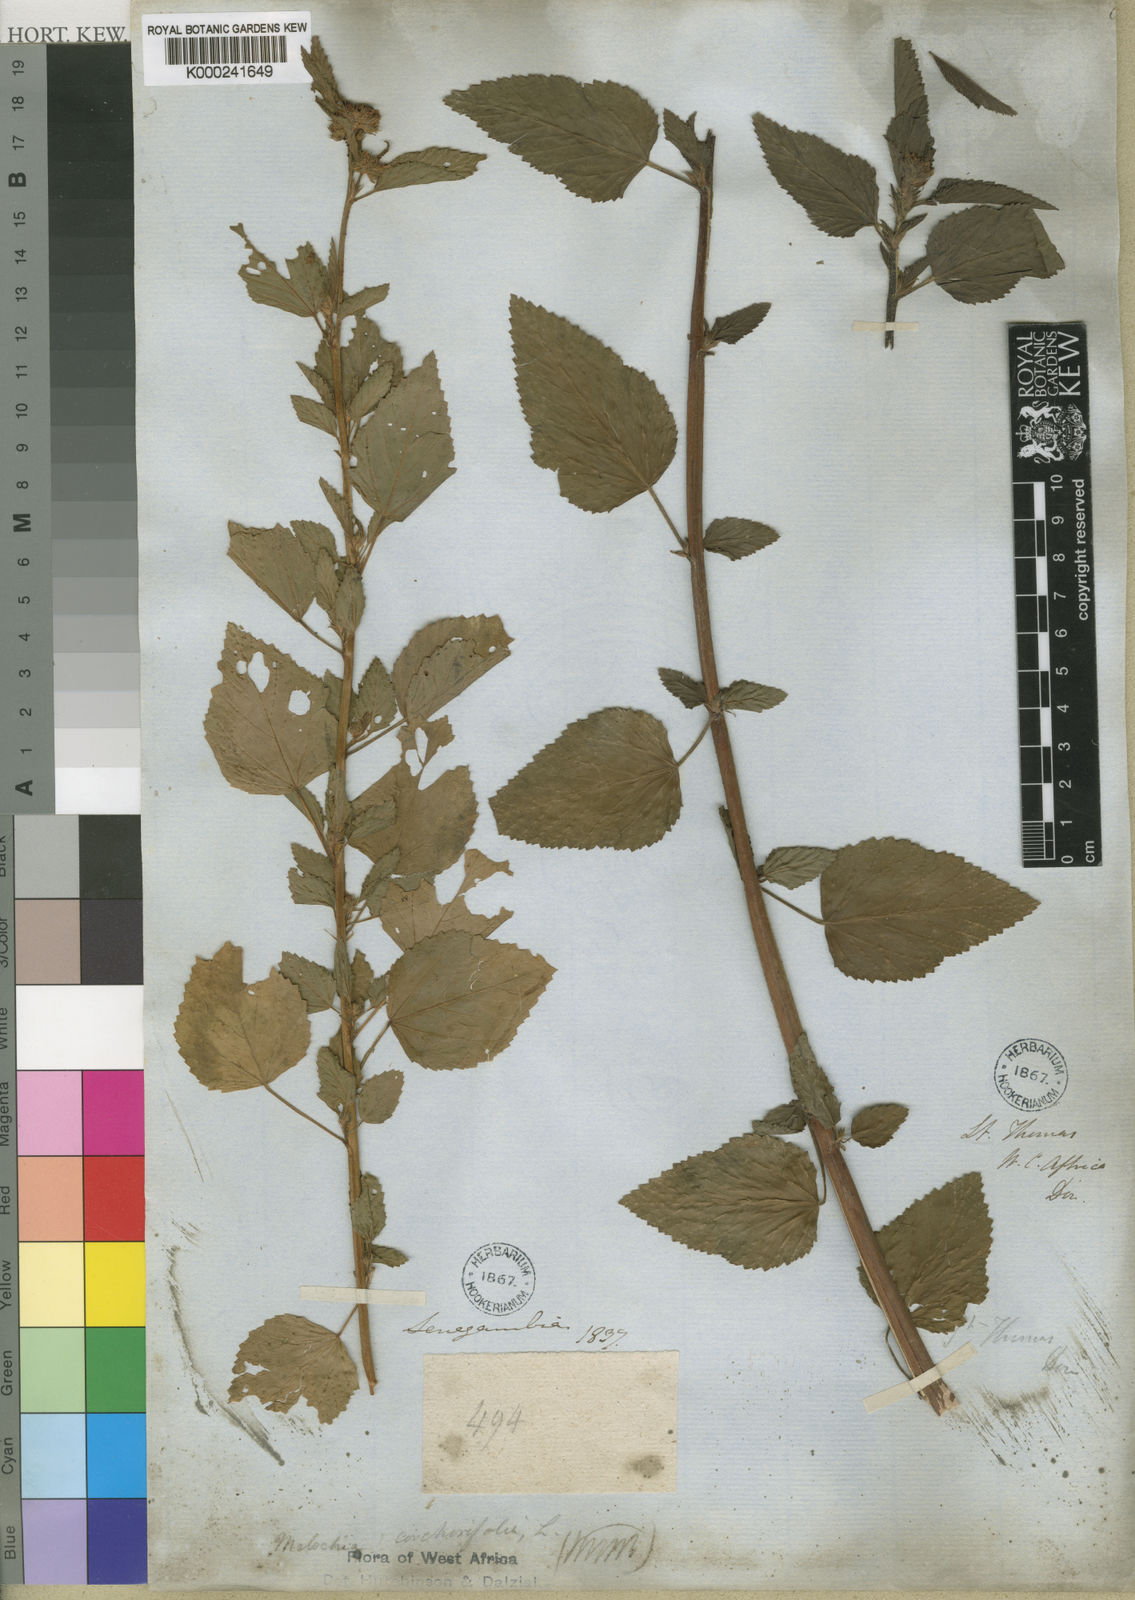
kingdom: Plantae
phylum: Tracheophyta
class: Magnoliopsida
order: Malvales
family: Malvaceae
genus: Melochia
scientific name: Melochia corchorifolia
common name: Chocolateweed
